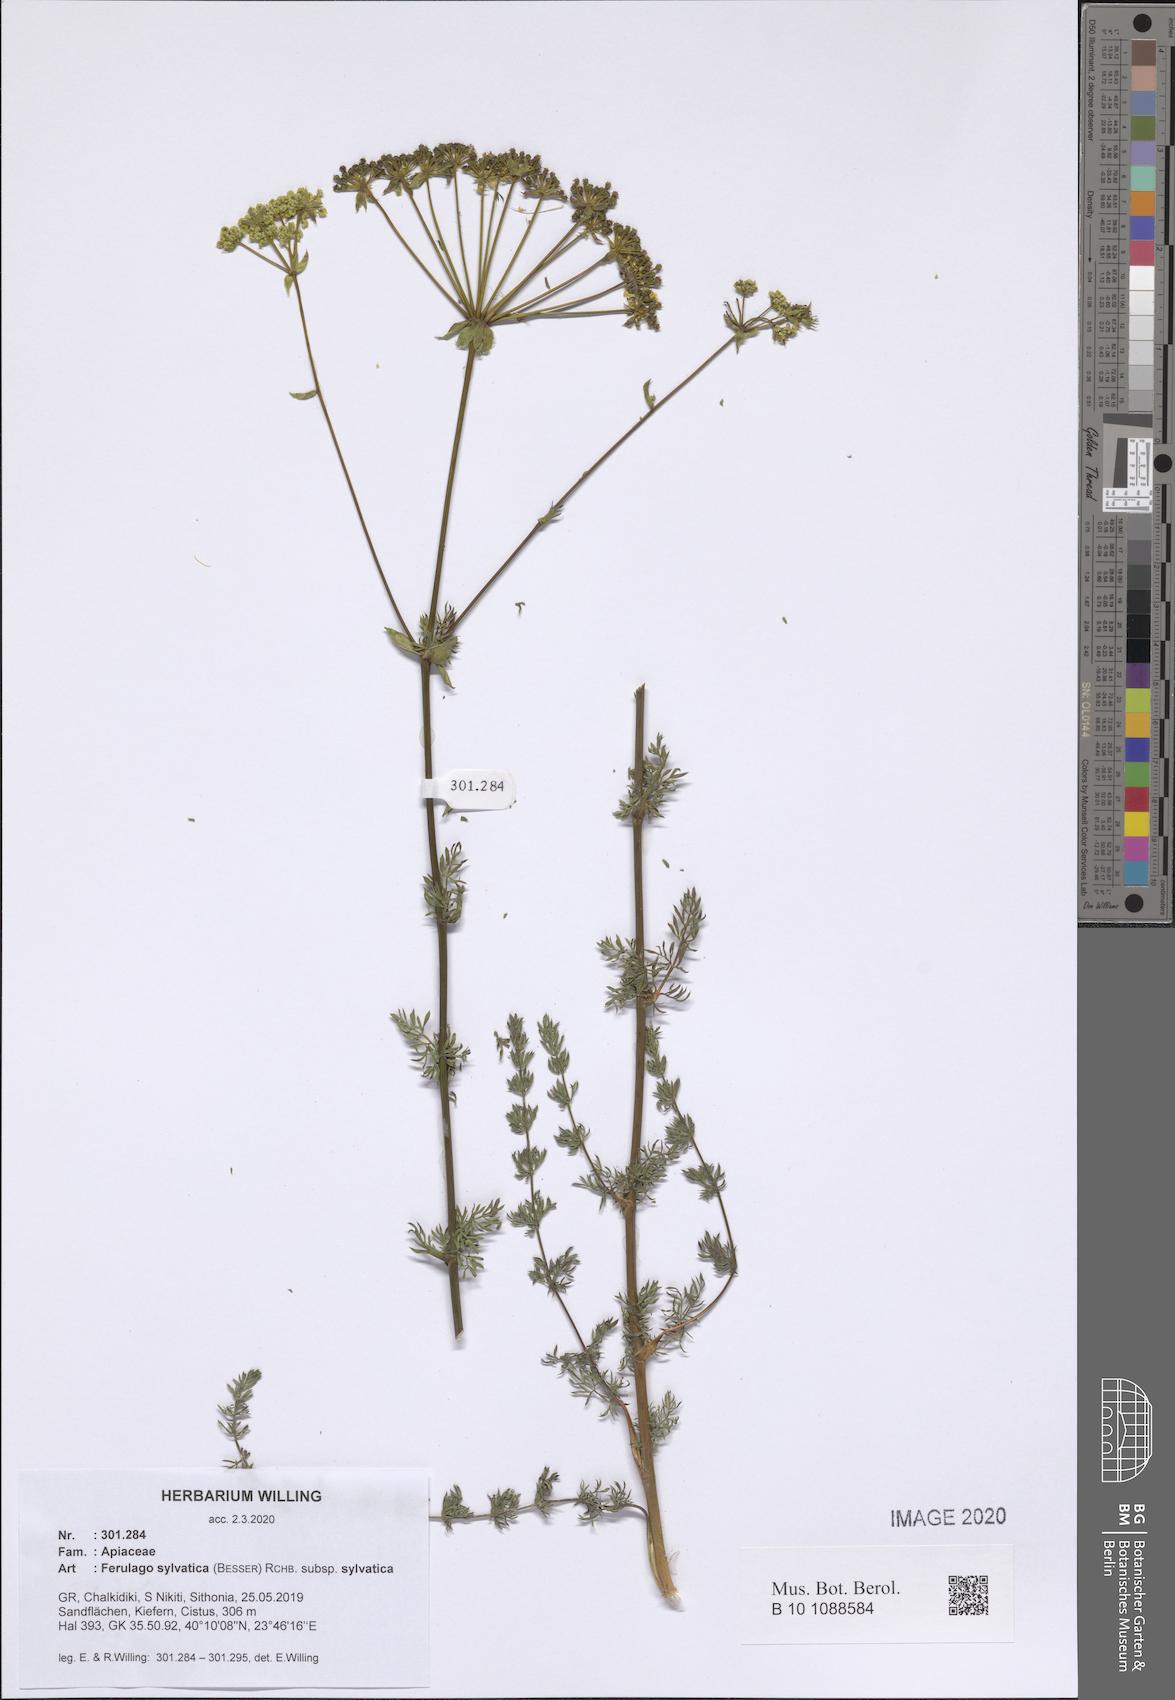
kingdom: Plantae
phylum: Tracheophyta
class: Magnoliopsida
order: Apiales
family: Apiaceae
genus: Ferulago
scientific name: Ferulago sylvatica
